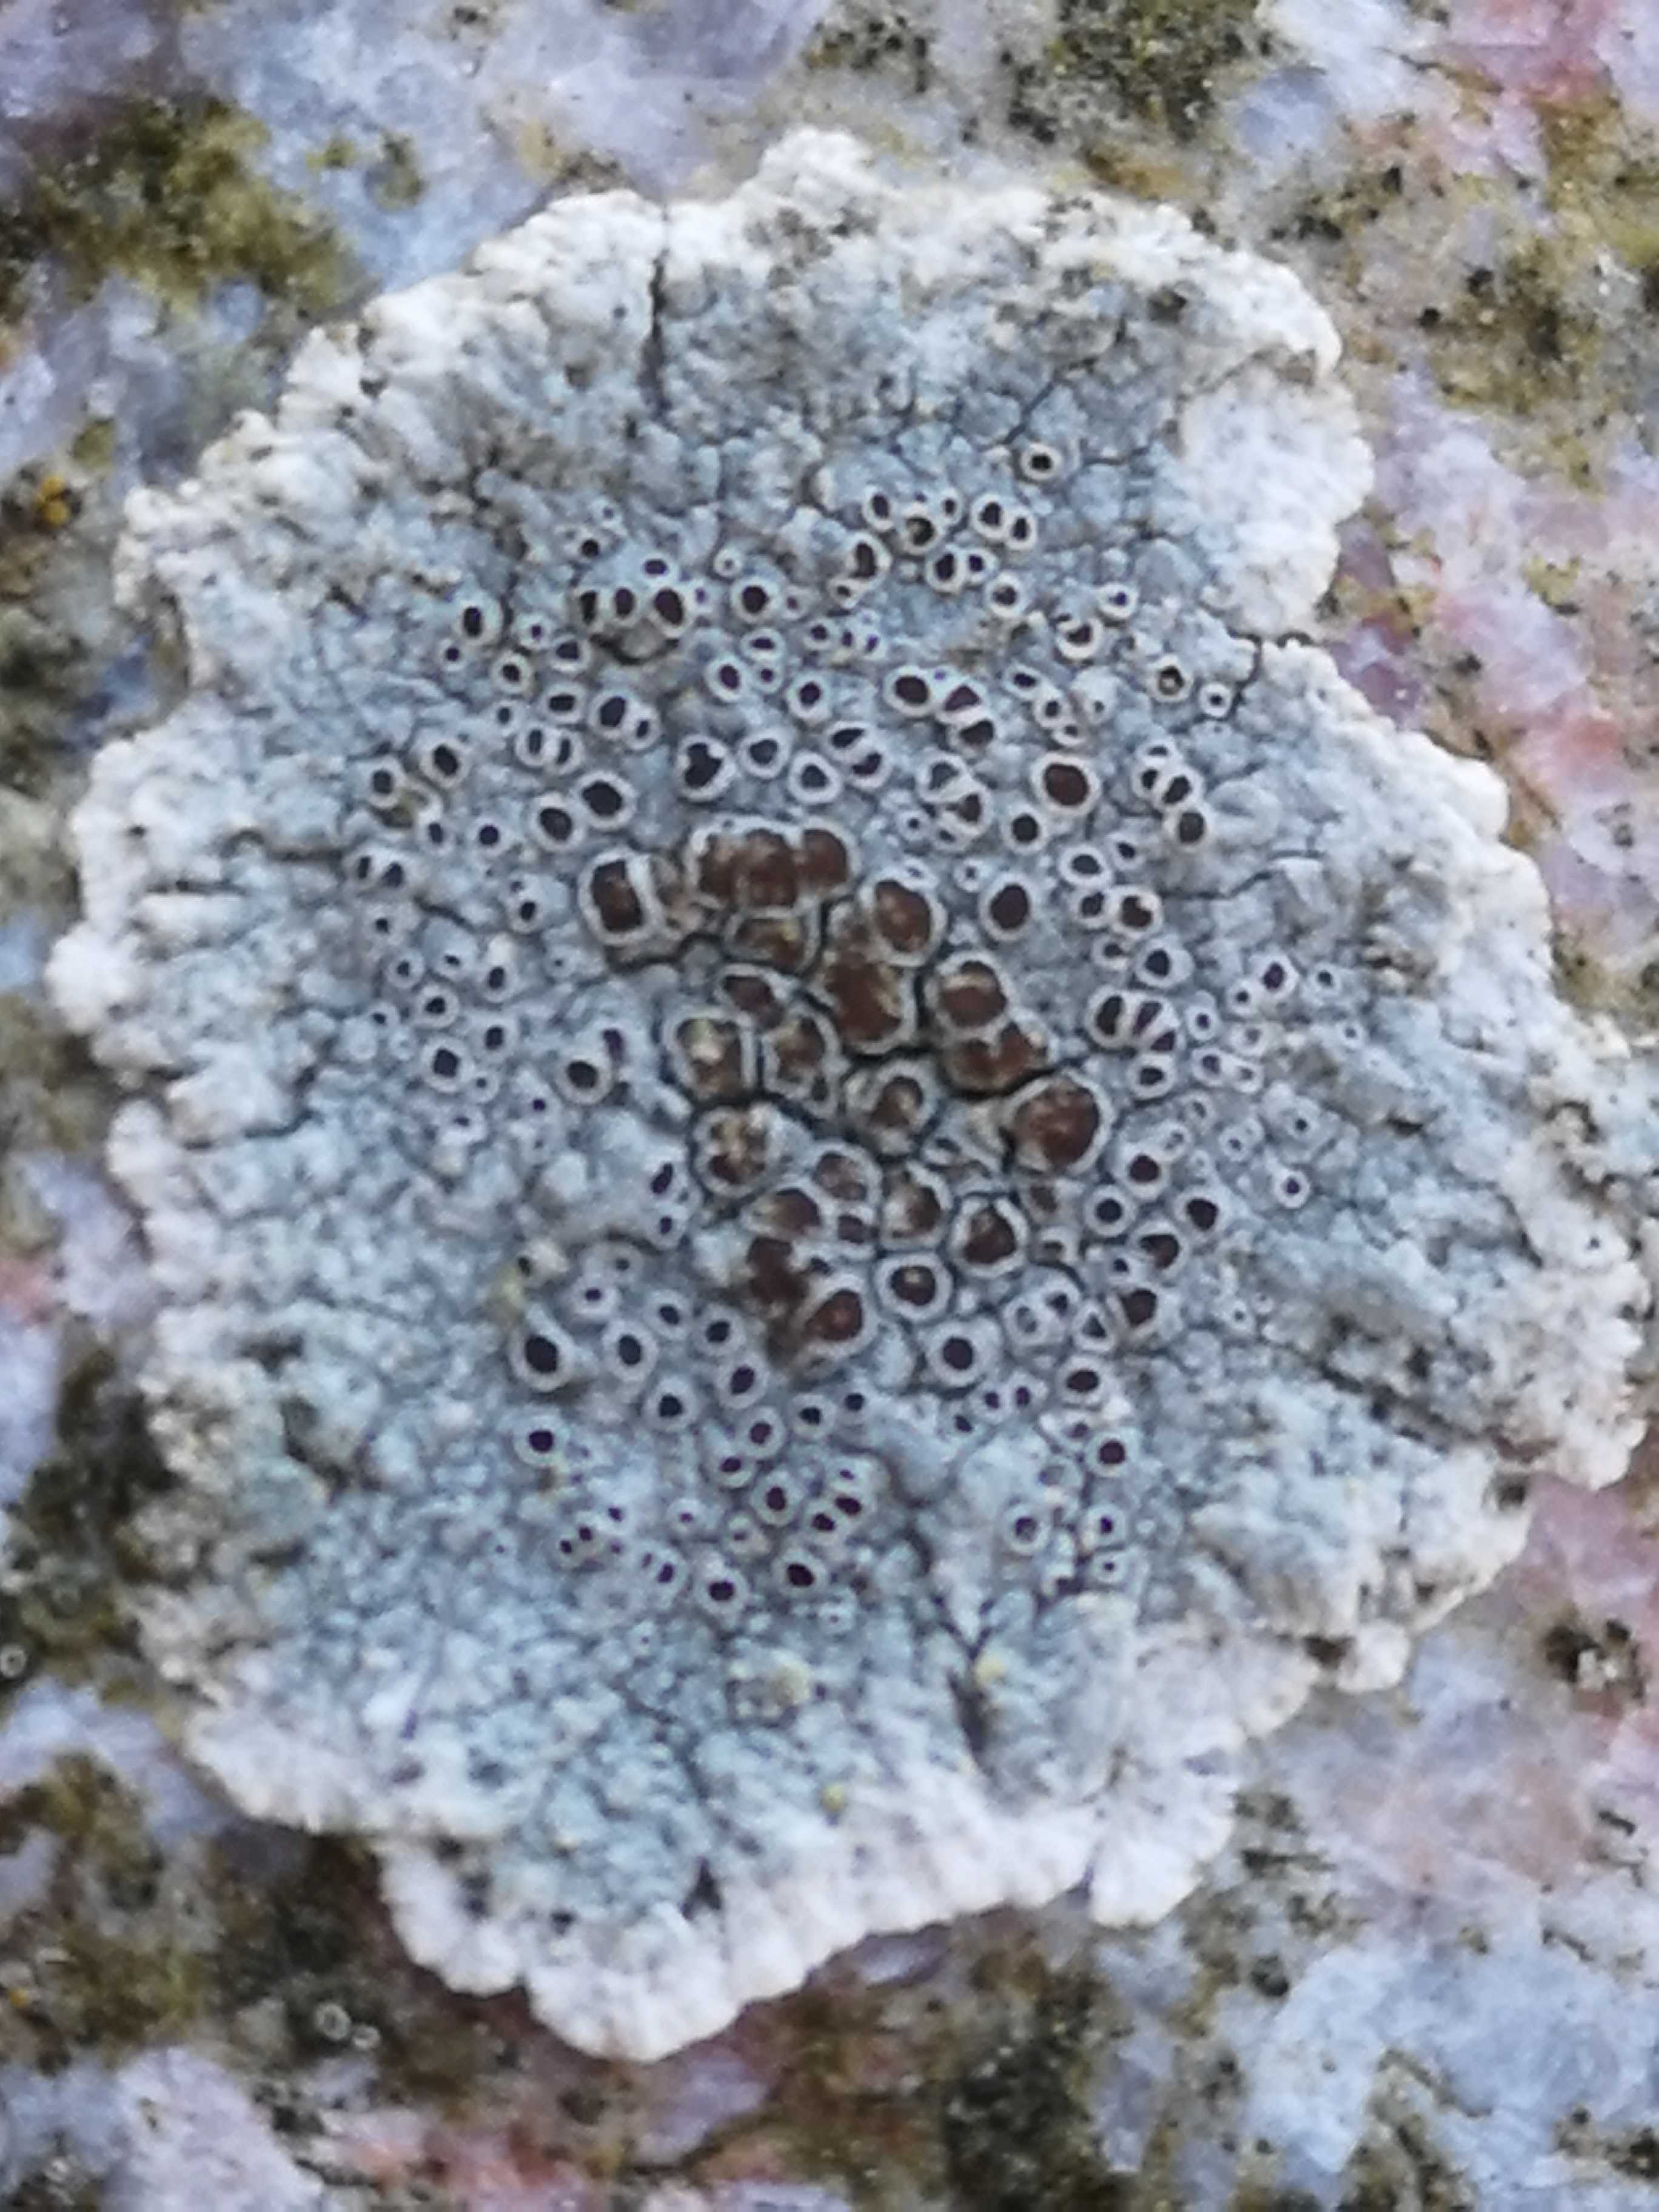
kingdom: Fungi
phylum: Ascomycota
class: Lecanoromycetes
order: Lecanorales
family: Lecanoraceae
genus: Lecanora
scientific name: Lecanora campestris
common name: mur-kantskivelav
